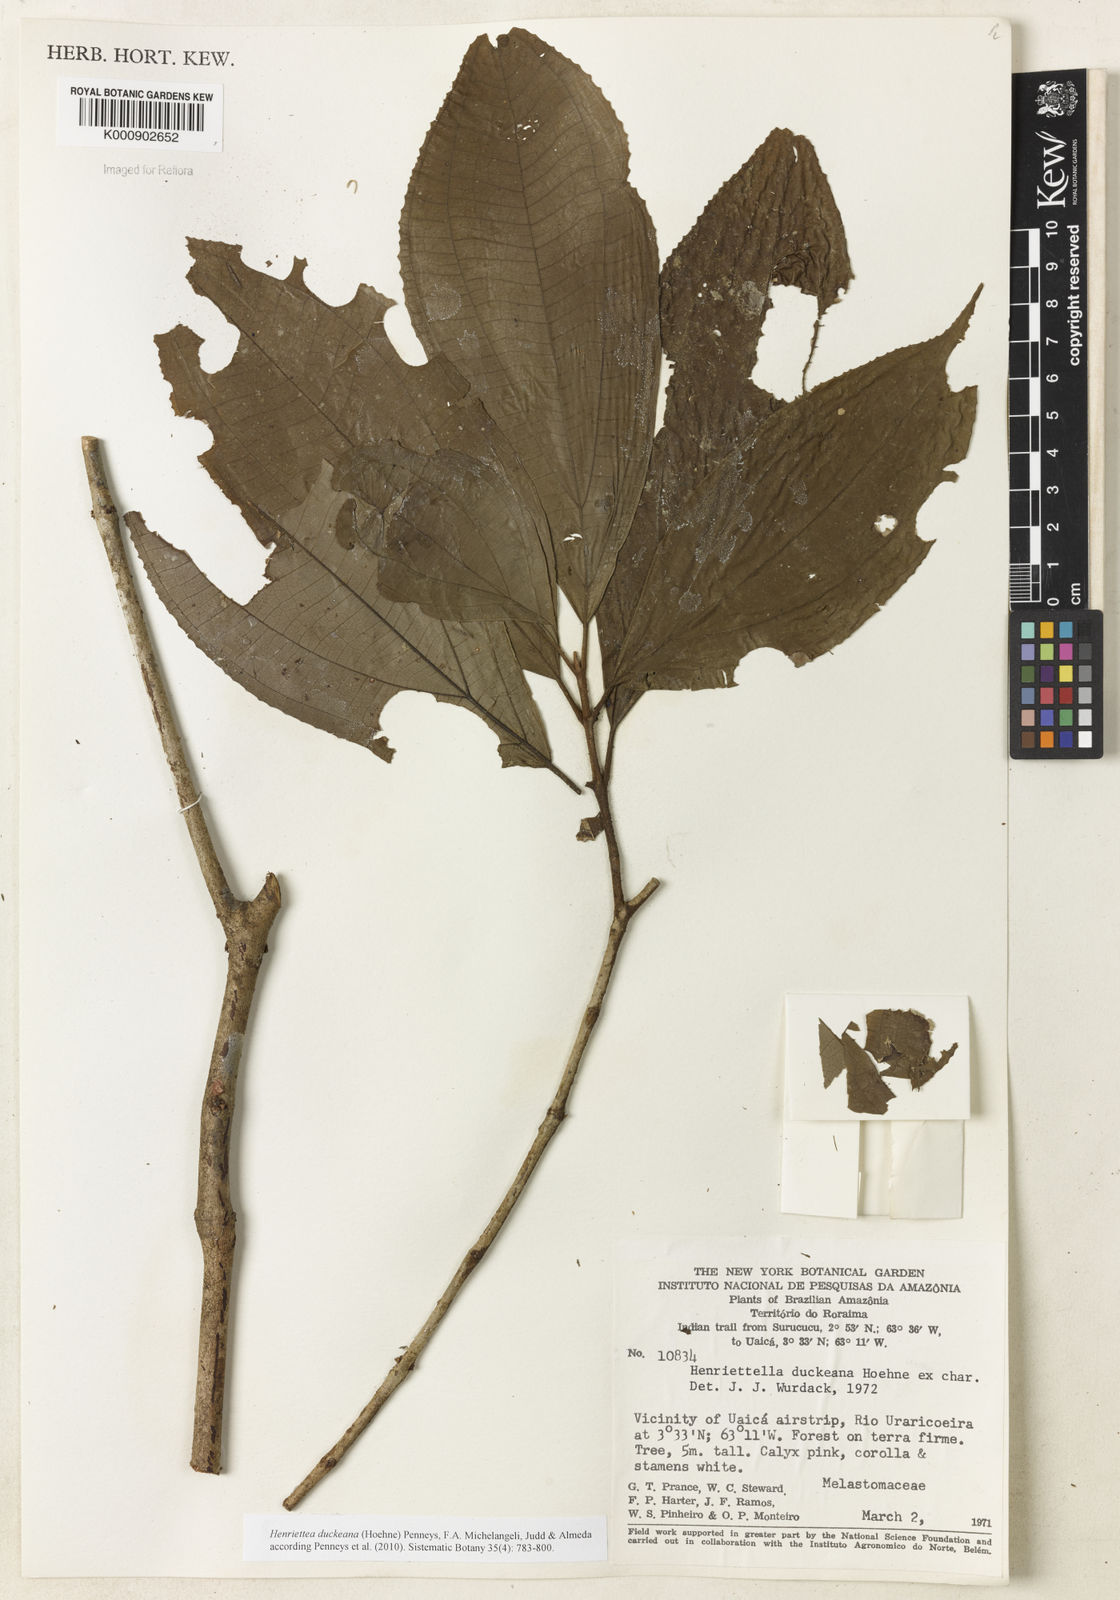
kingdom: Plantae
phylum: Tracheophyta
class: Magnoliopsida
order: Myrtales
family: Melastomataceae
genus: Henriettea
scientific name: Henriettea duckeana
